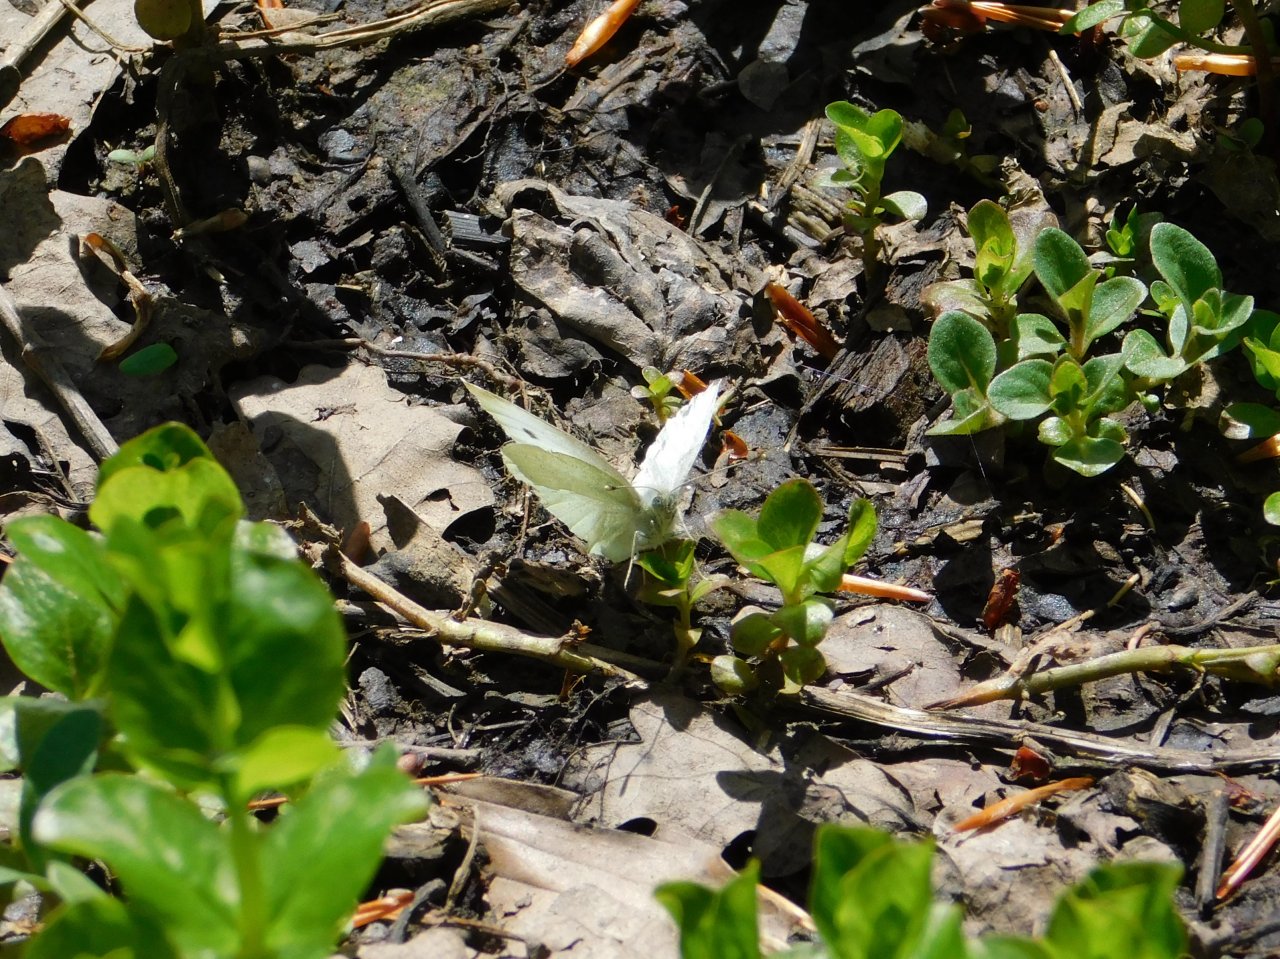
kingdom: Animalia
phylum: Arthropoda
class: Insecta
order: Lepidoptera
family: Pieridae
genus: Pieris
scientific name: Pieris rapae
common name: Cabbage White
